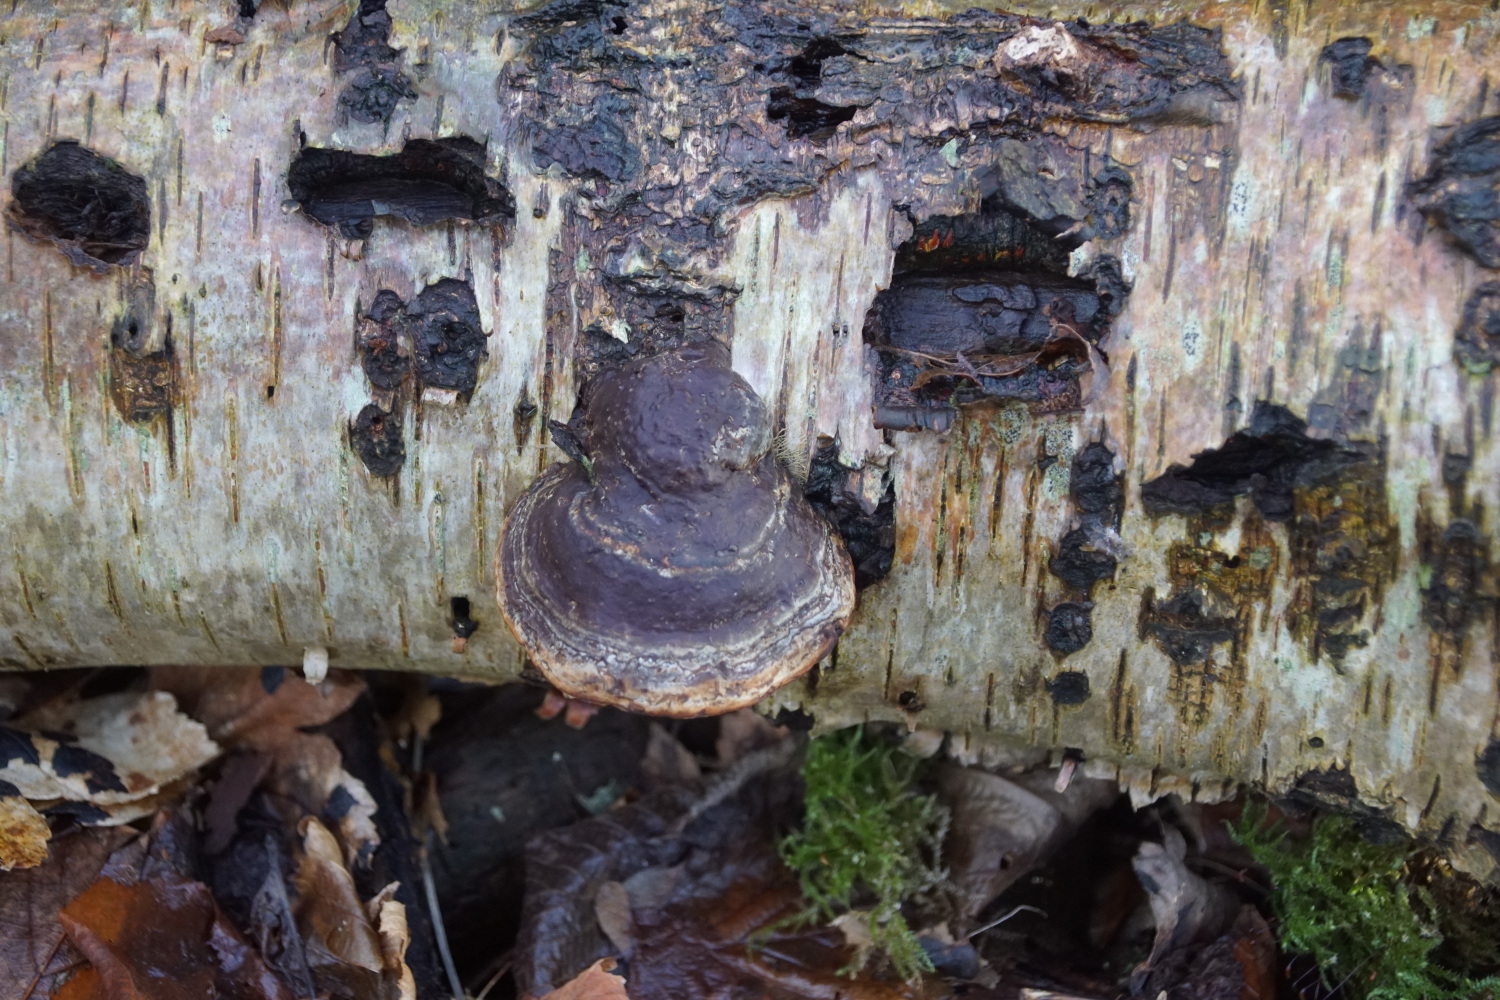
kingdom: Fungi
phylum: Basidiomycota
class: Agaricomycetes
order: Polyporales
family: Polyporaceae
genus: Fomes
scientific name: Fomes fomentarius
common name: tøndersvamp
